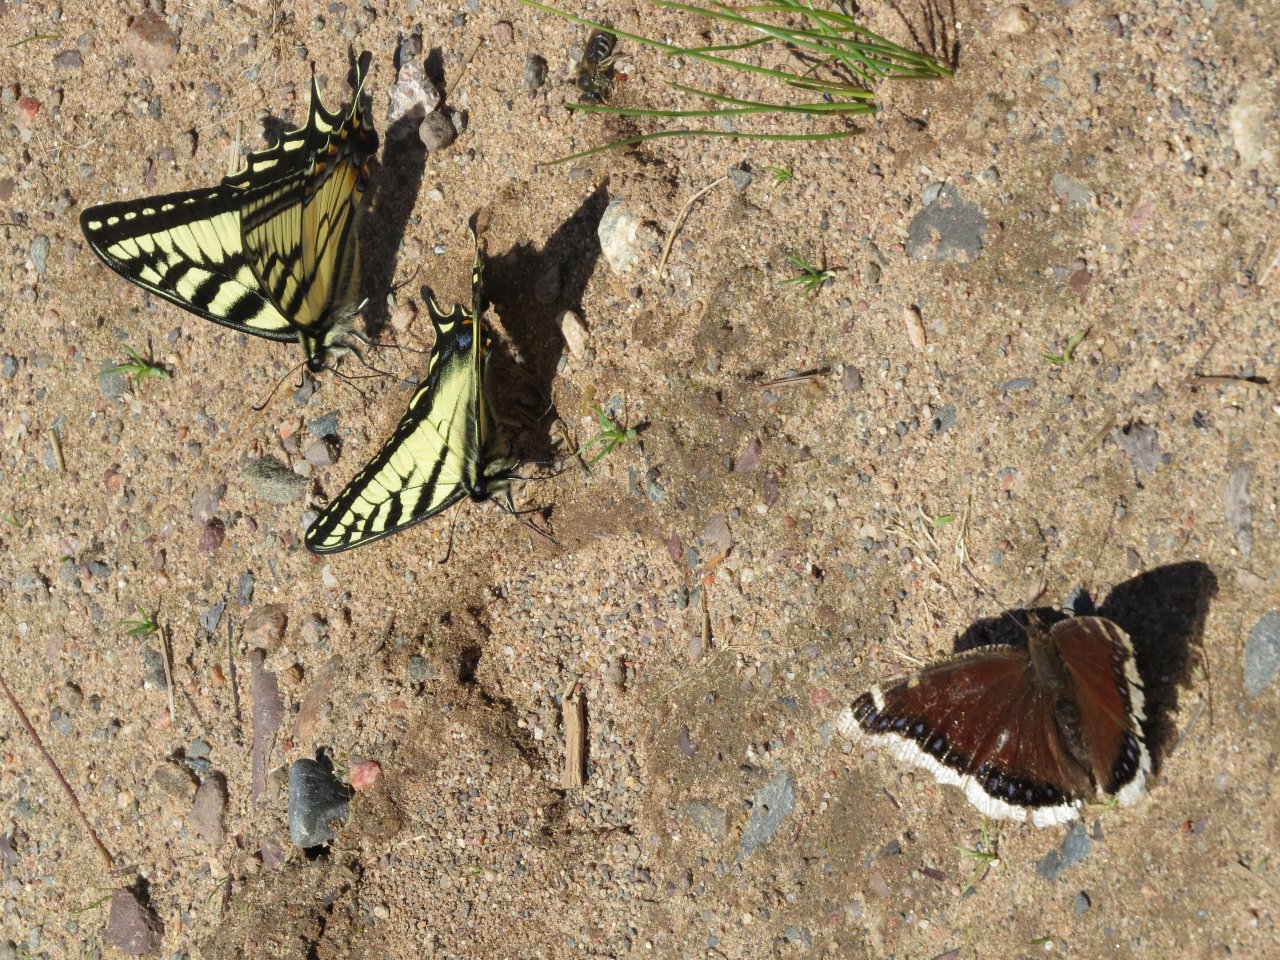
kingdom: Animalia
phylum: Arthropoda
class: Insecta
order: Lepidoptera
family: Nymphalidae
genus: Nymphalis
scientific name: Nymphalis antiopa
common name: Mourning Cloak
